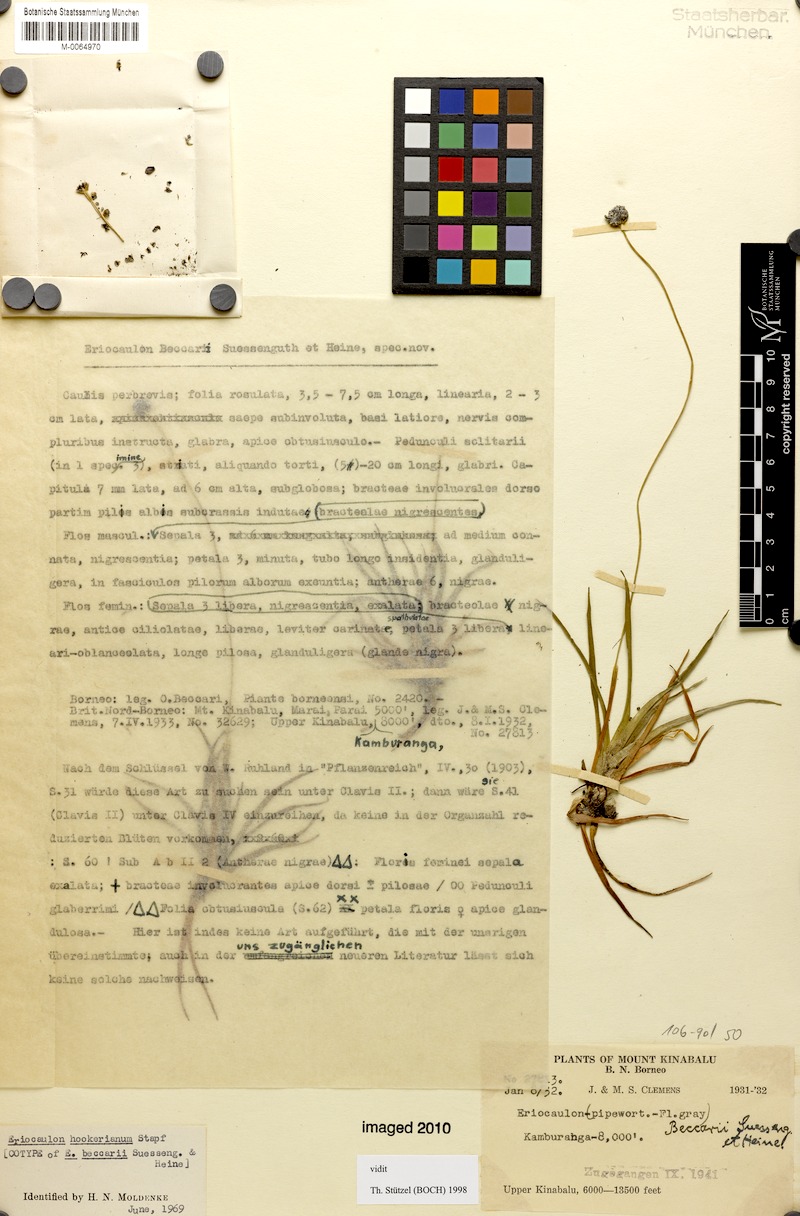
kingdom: Plantae
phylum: Tracheophyta
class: Liliopsida
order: Poales
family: Eriocaulaceae
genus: Eriocaulon
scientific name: Eriocaulon hookerianum
